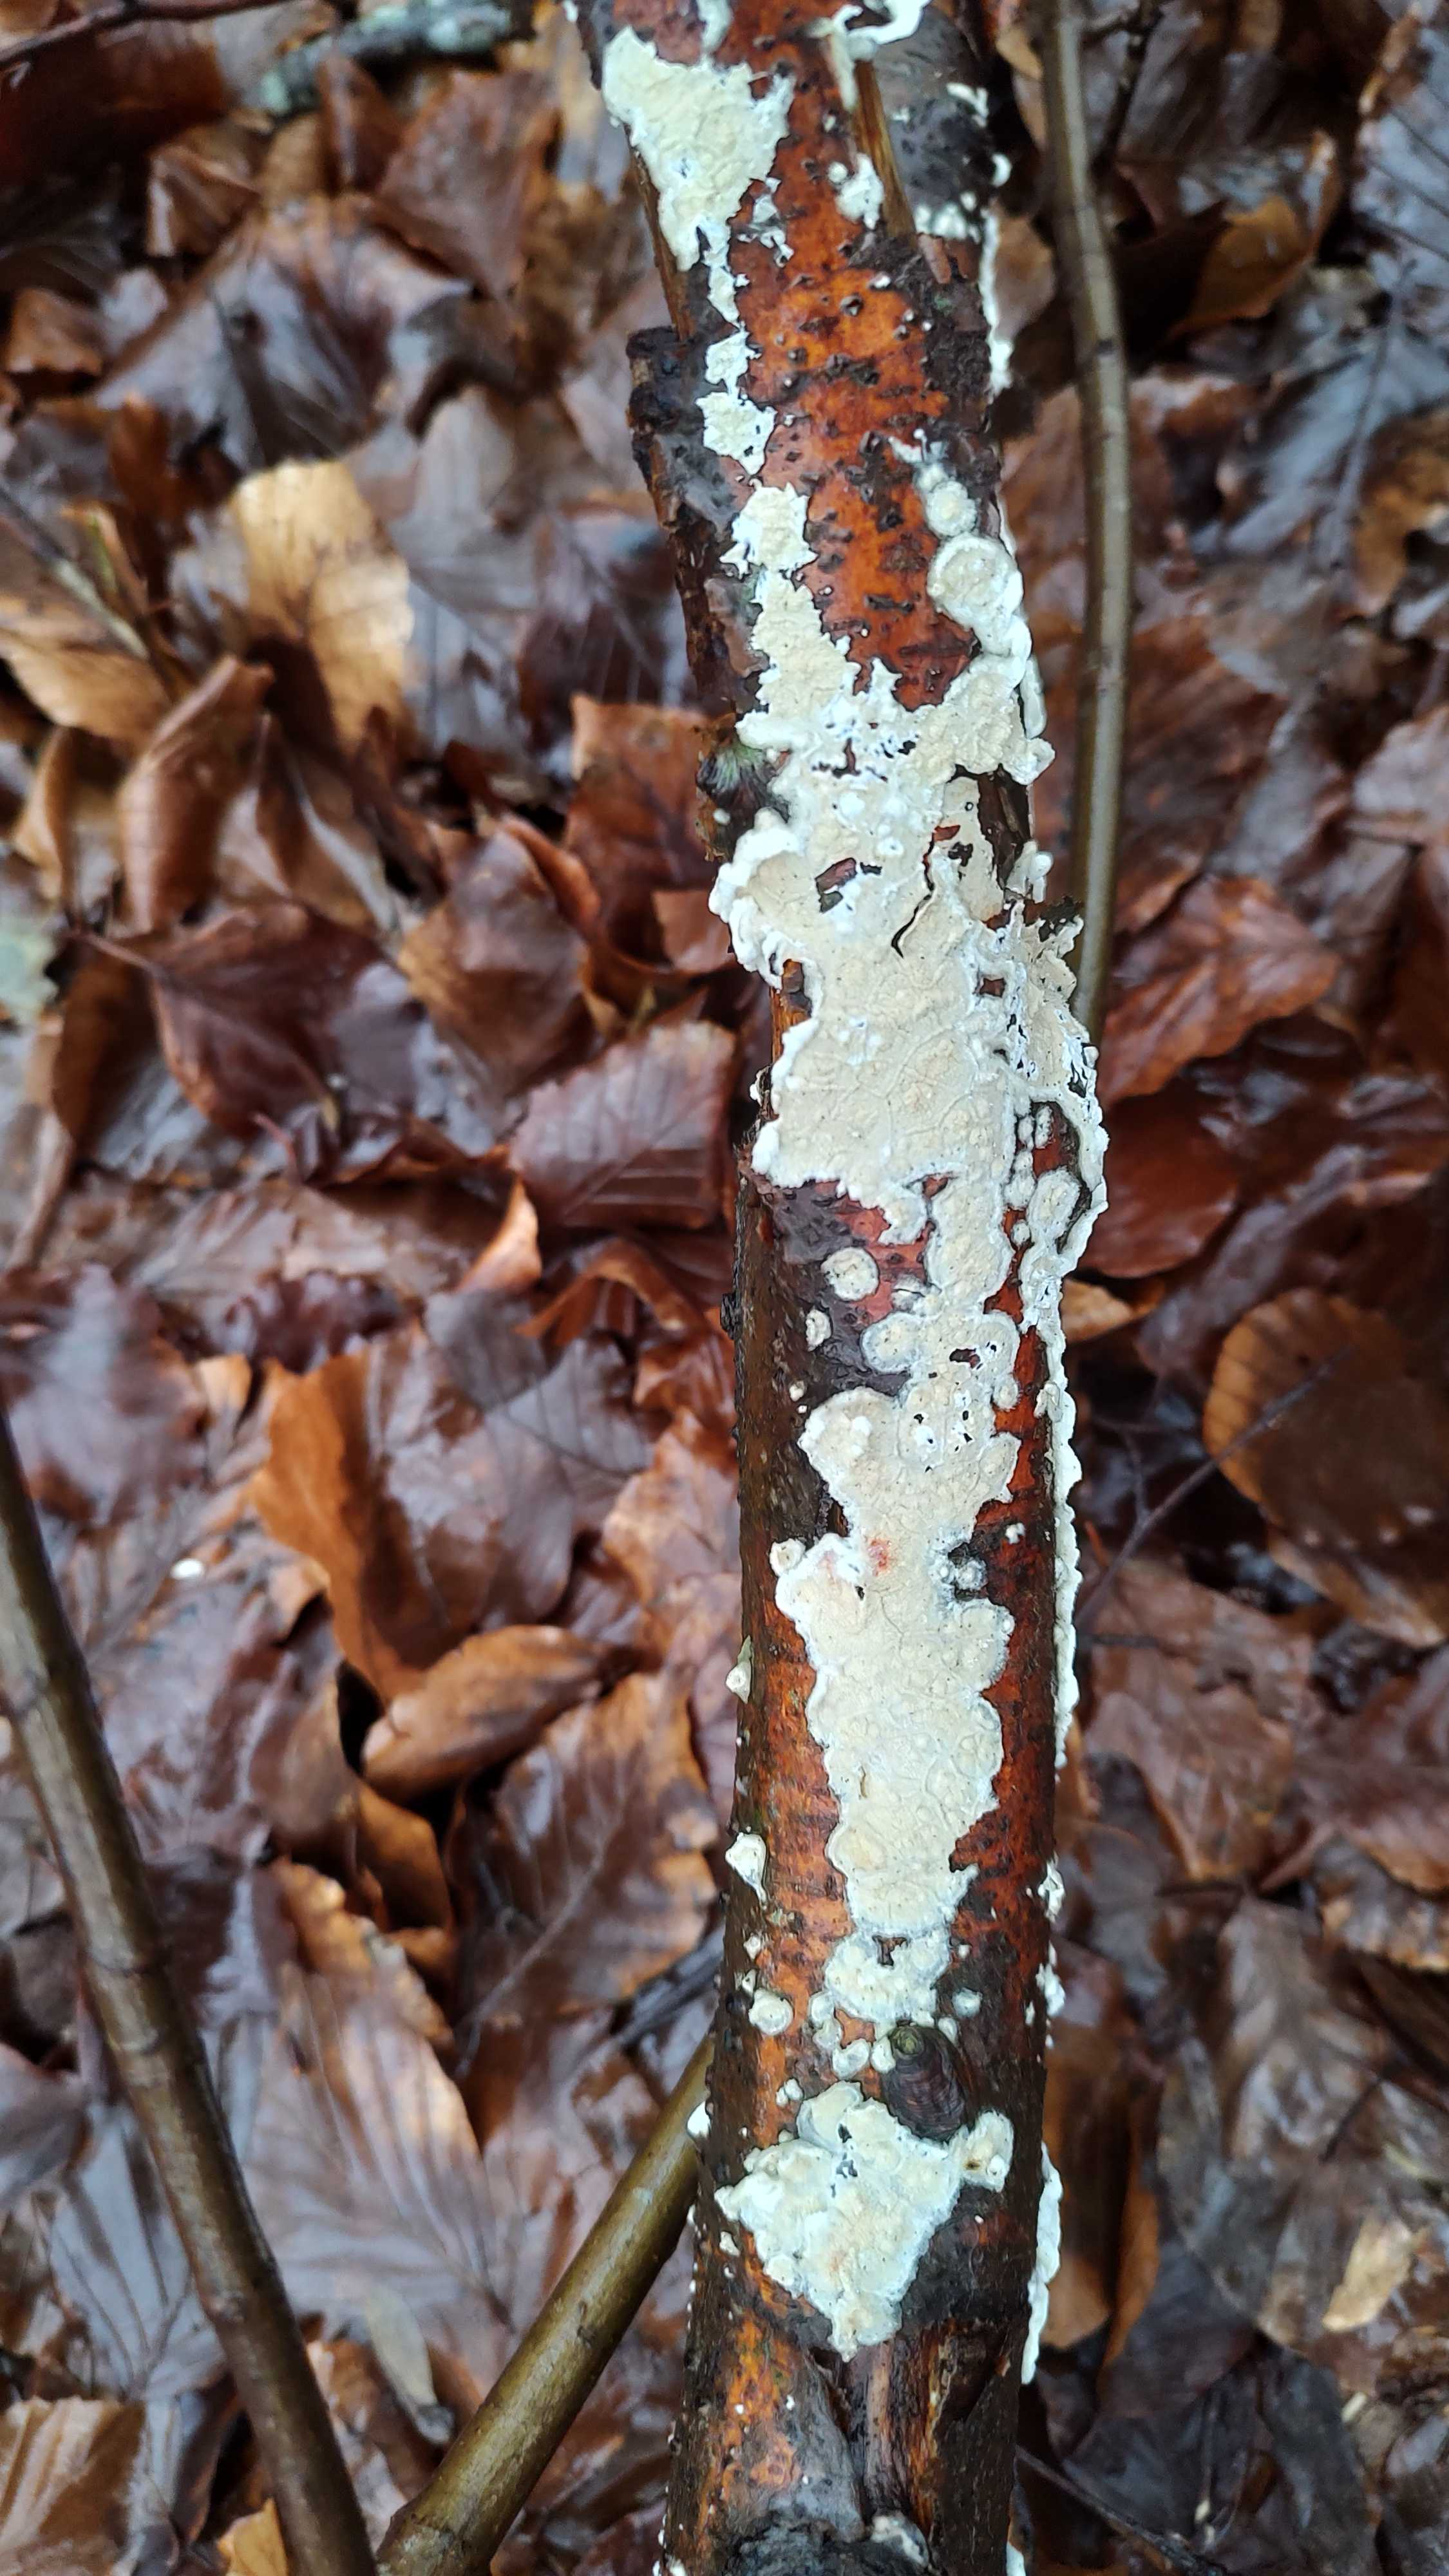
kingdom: Fungi
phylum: Basidiomycota
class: Agaricomycetes
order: Polyporales
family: Irpicaceae
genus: Byssomerulius
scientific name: Byssomerulius corium
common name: læder-åresvamp
